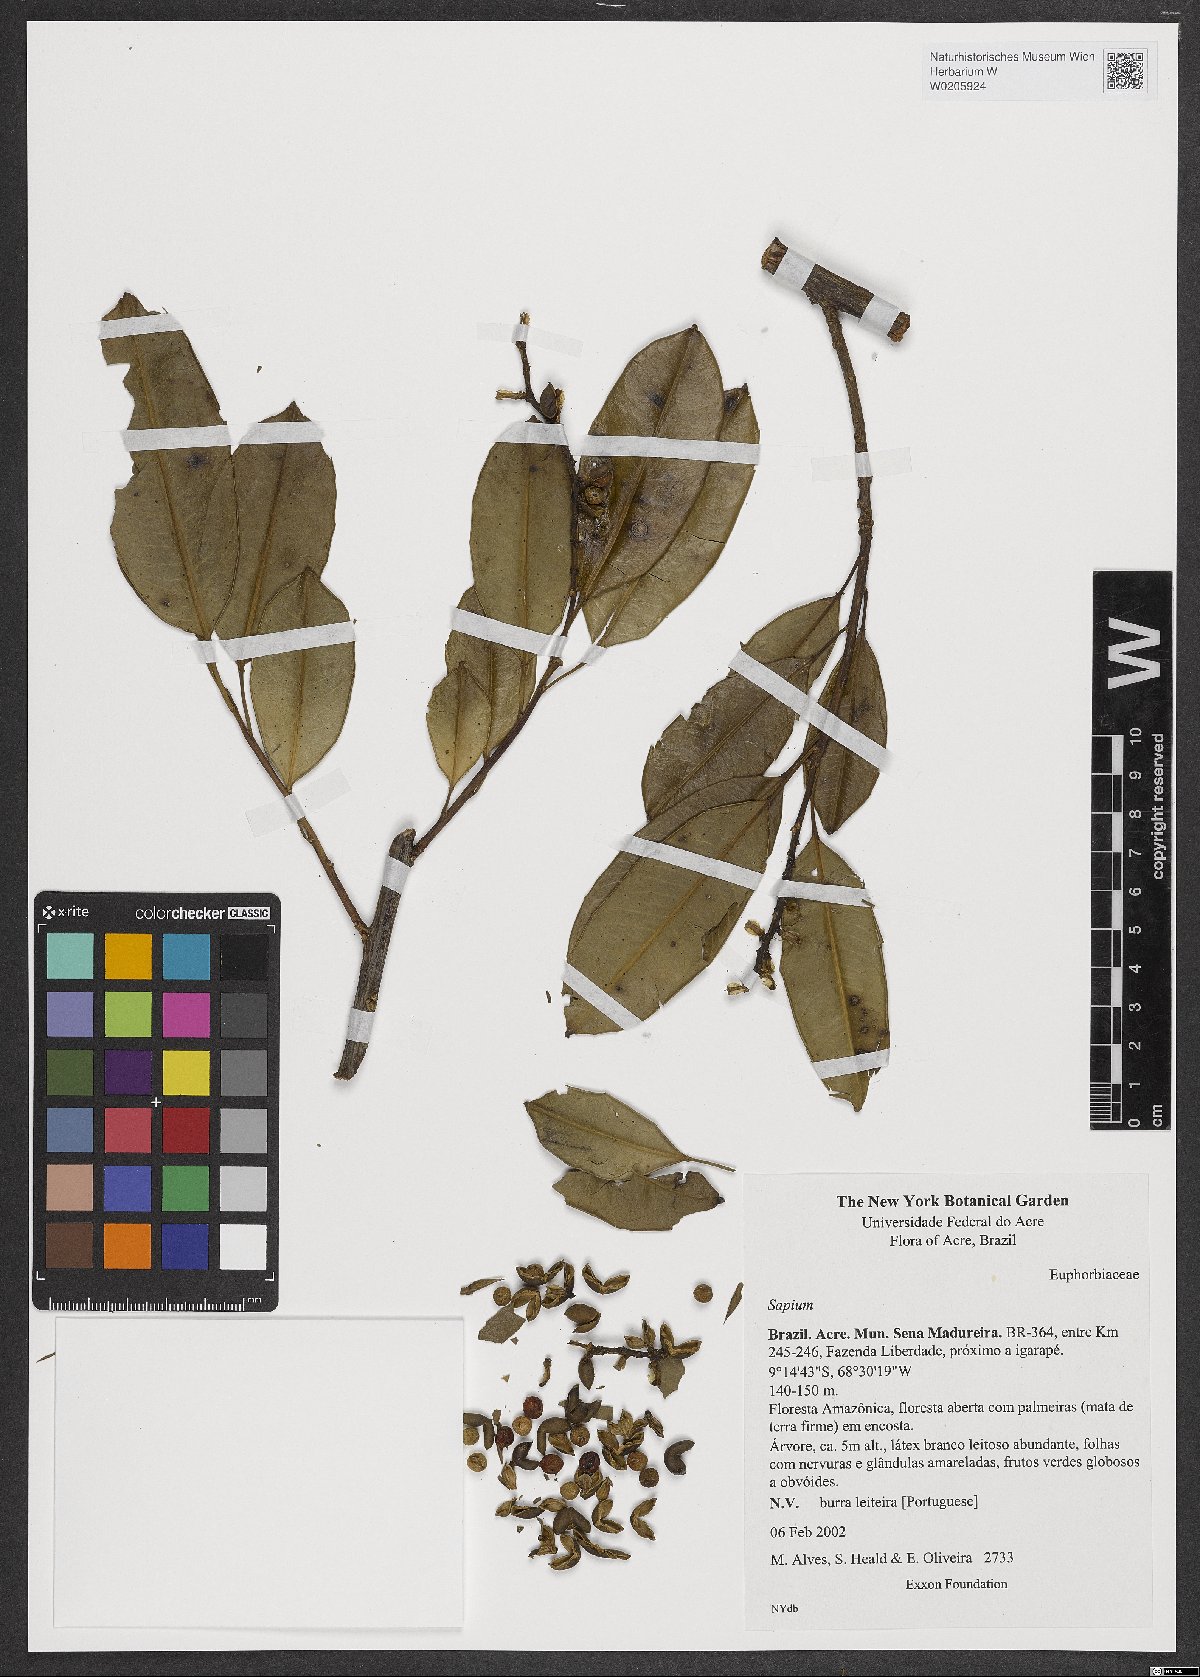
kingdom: Plantae
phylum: Tracheophyta
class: Magnoliopsida
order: Malpighiales
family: Euphorbiaceae
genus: Sapium
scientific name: Sapium
